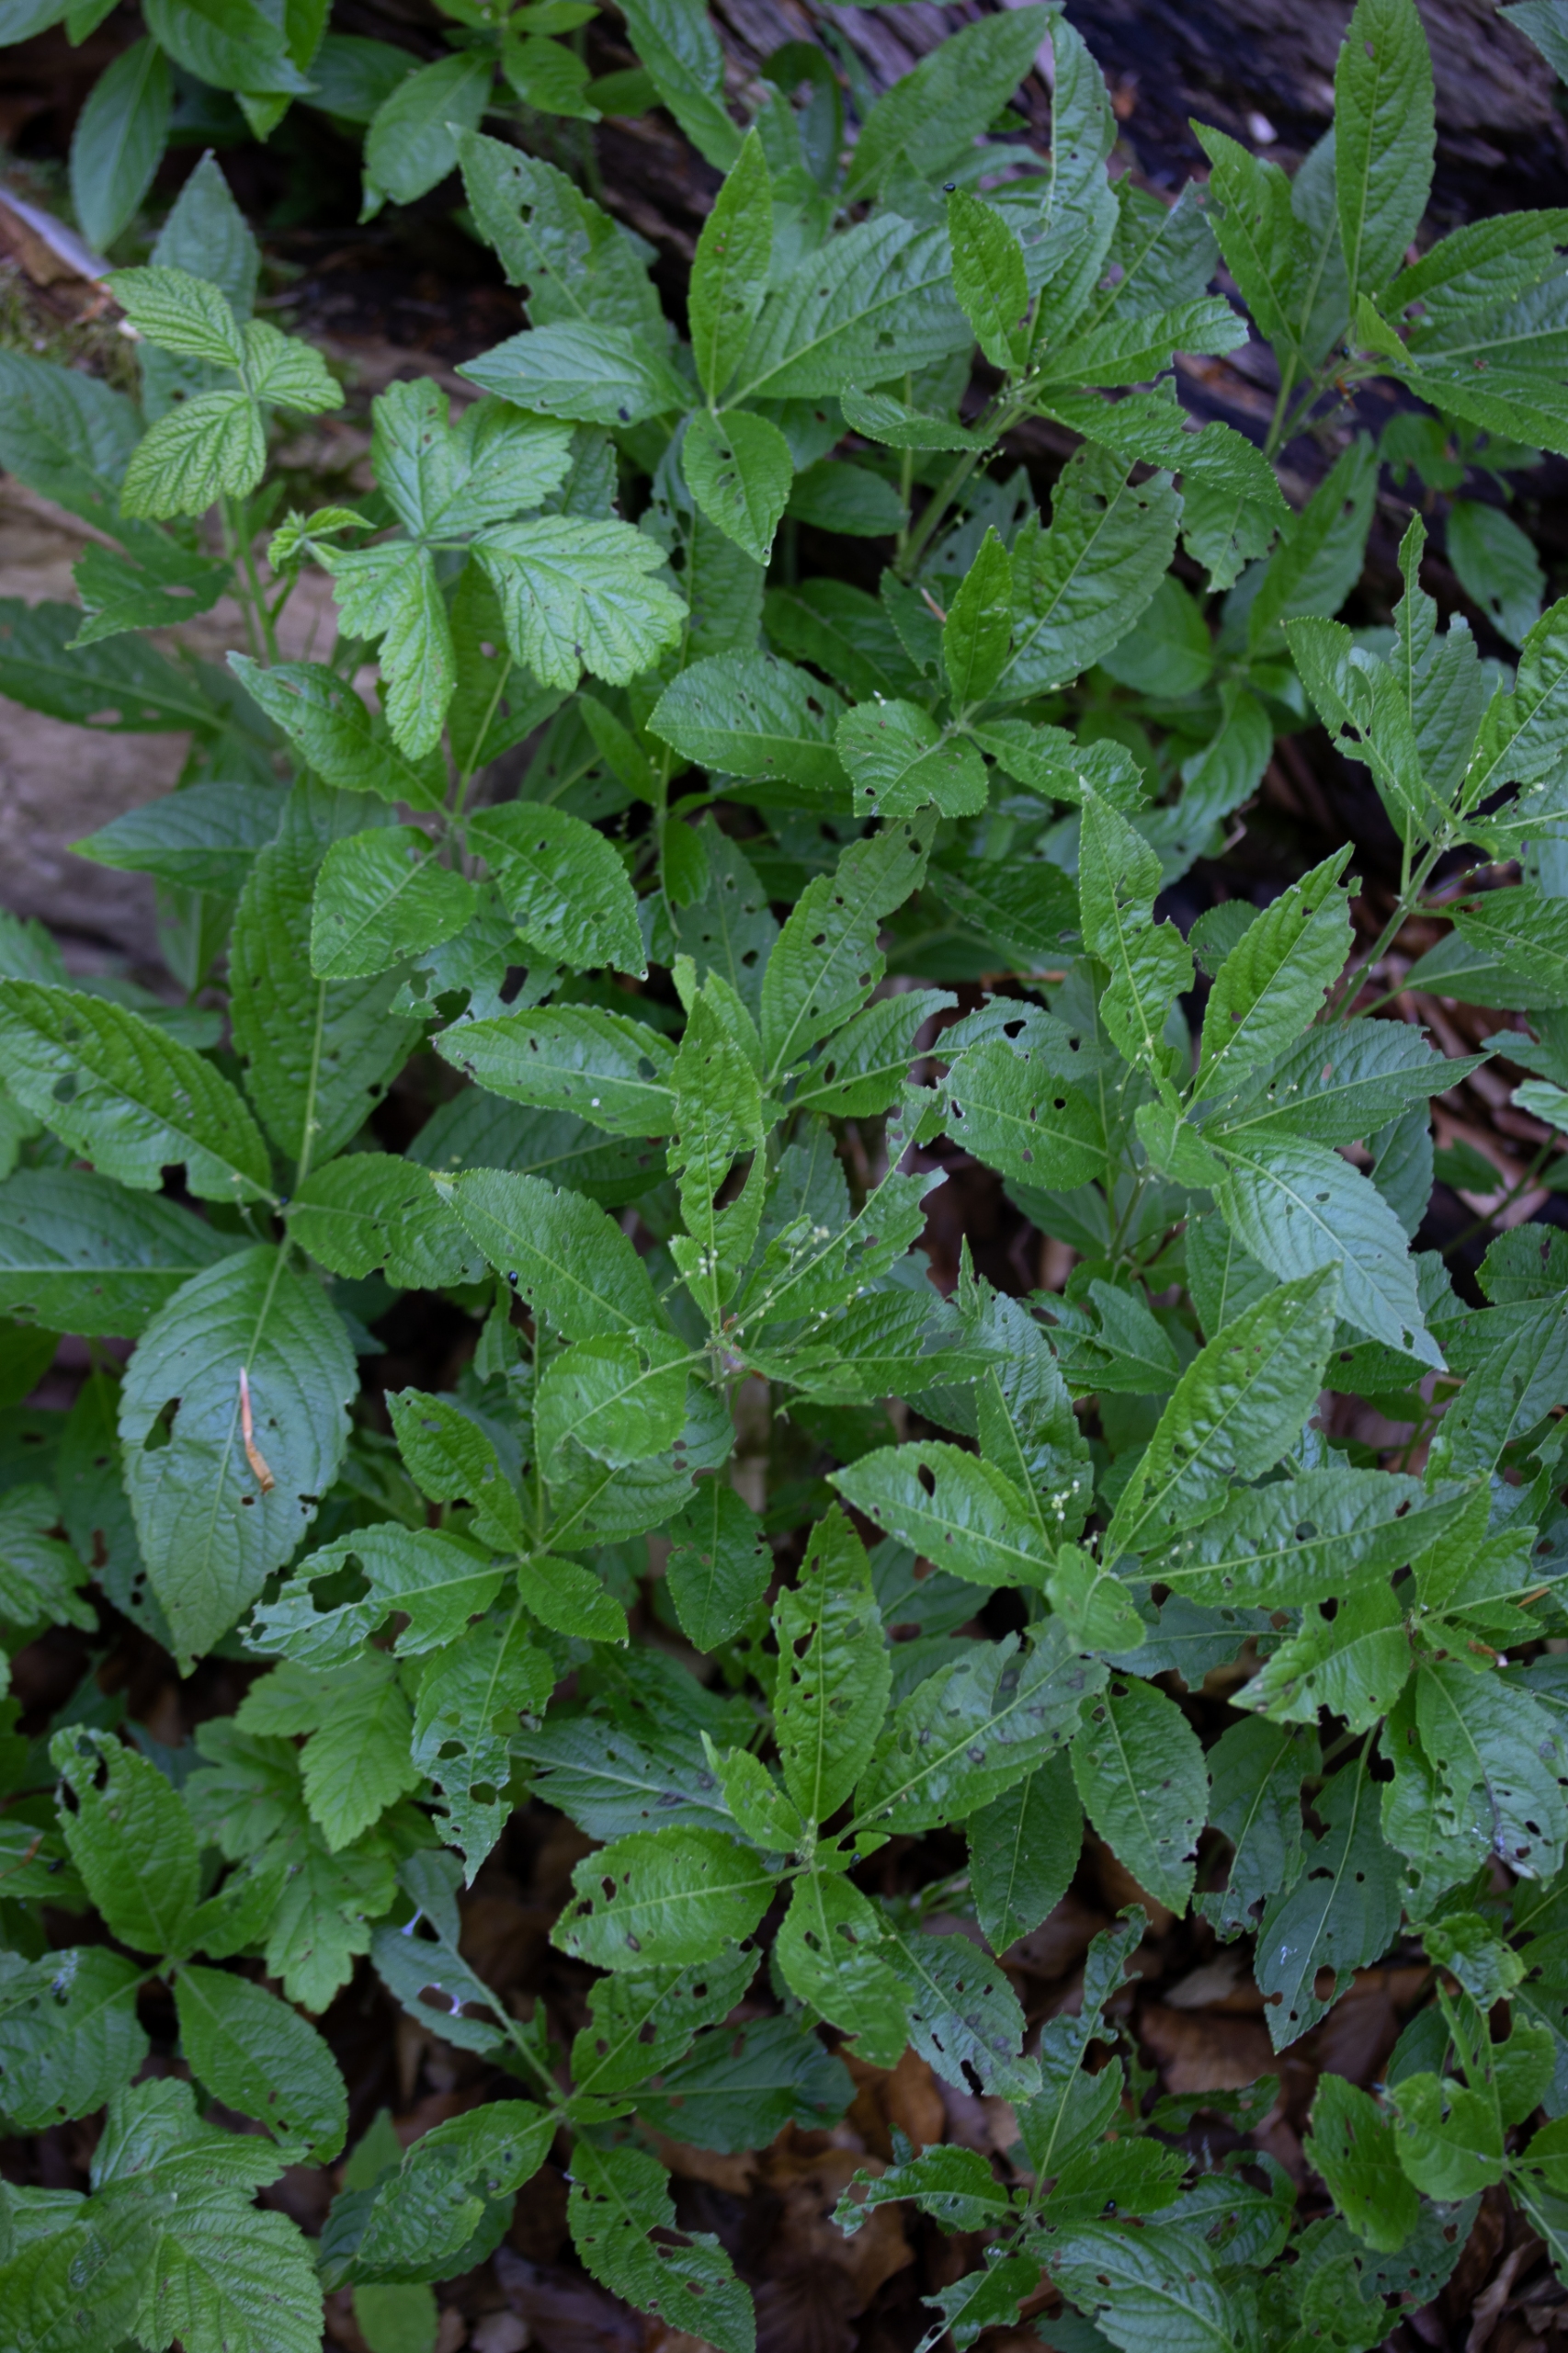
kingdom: Plantae
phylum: Tracheophyta
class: Magnoliopsida
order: Malpighiales
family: Euphorbiaceae
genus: Mercurialis
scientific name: Mercurialis perennis
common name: Almindelig bingelurt
